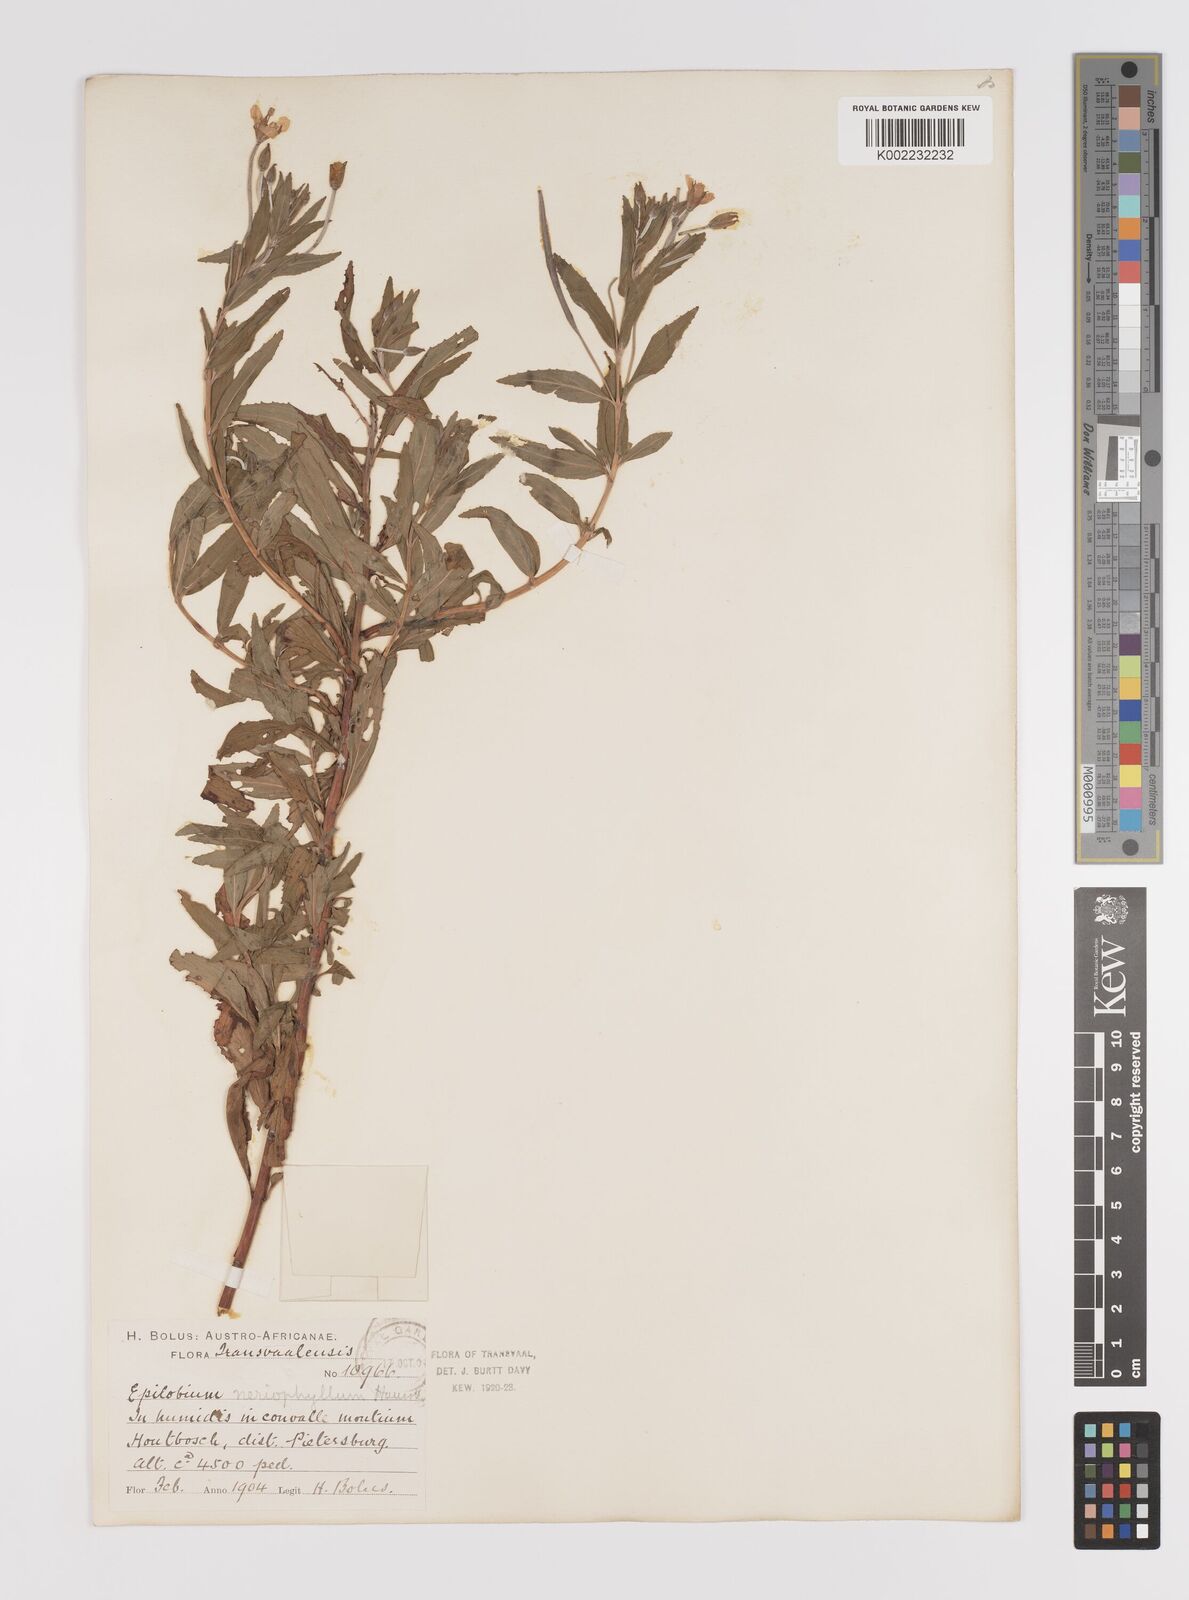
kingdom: Plantae
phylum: Tracheophyta
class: Magnoliopsida
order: Myrtales
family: Onagraceae
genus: Epilobium
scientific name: Epilobium salignum
